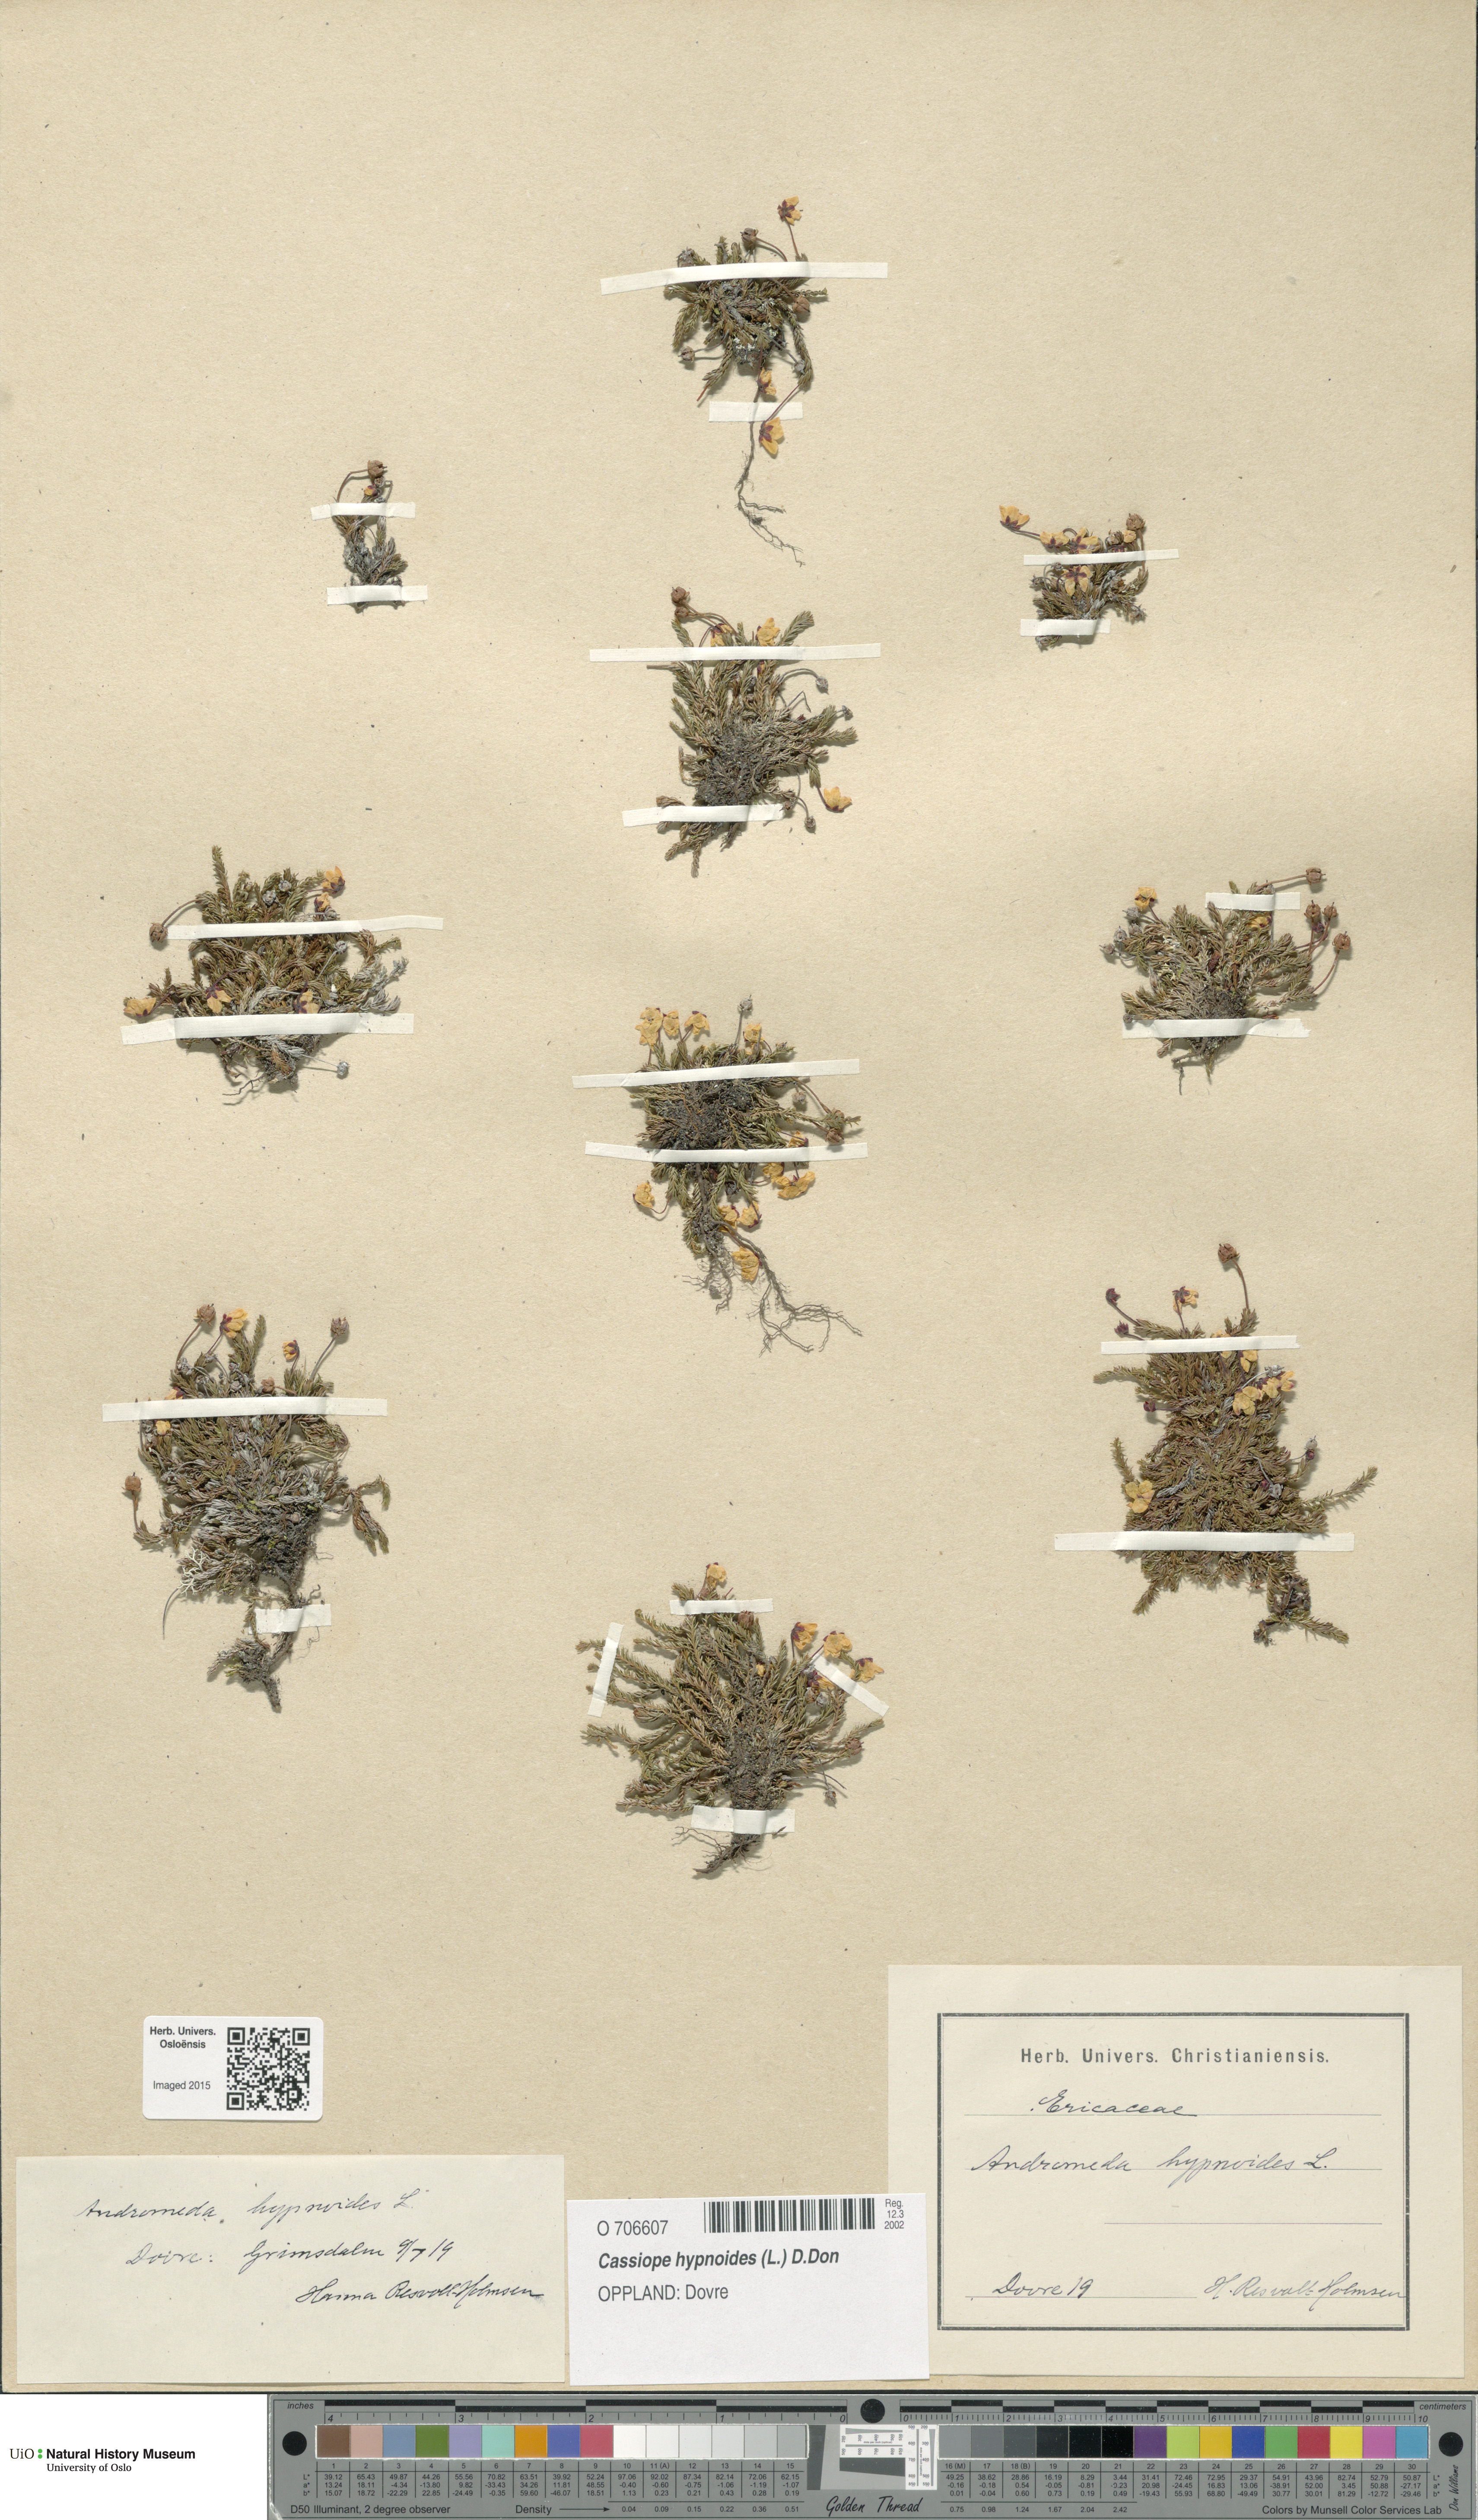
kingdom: Plantae
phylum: Tracheophyta
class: Magnoliopsida
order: Ericales
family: Ericaceae
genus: Harrimanella
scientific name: Harrimanella hypnoides
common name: Moss bell heather
